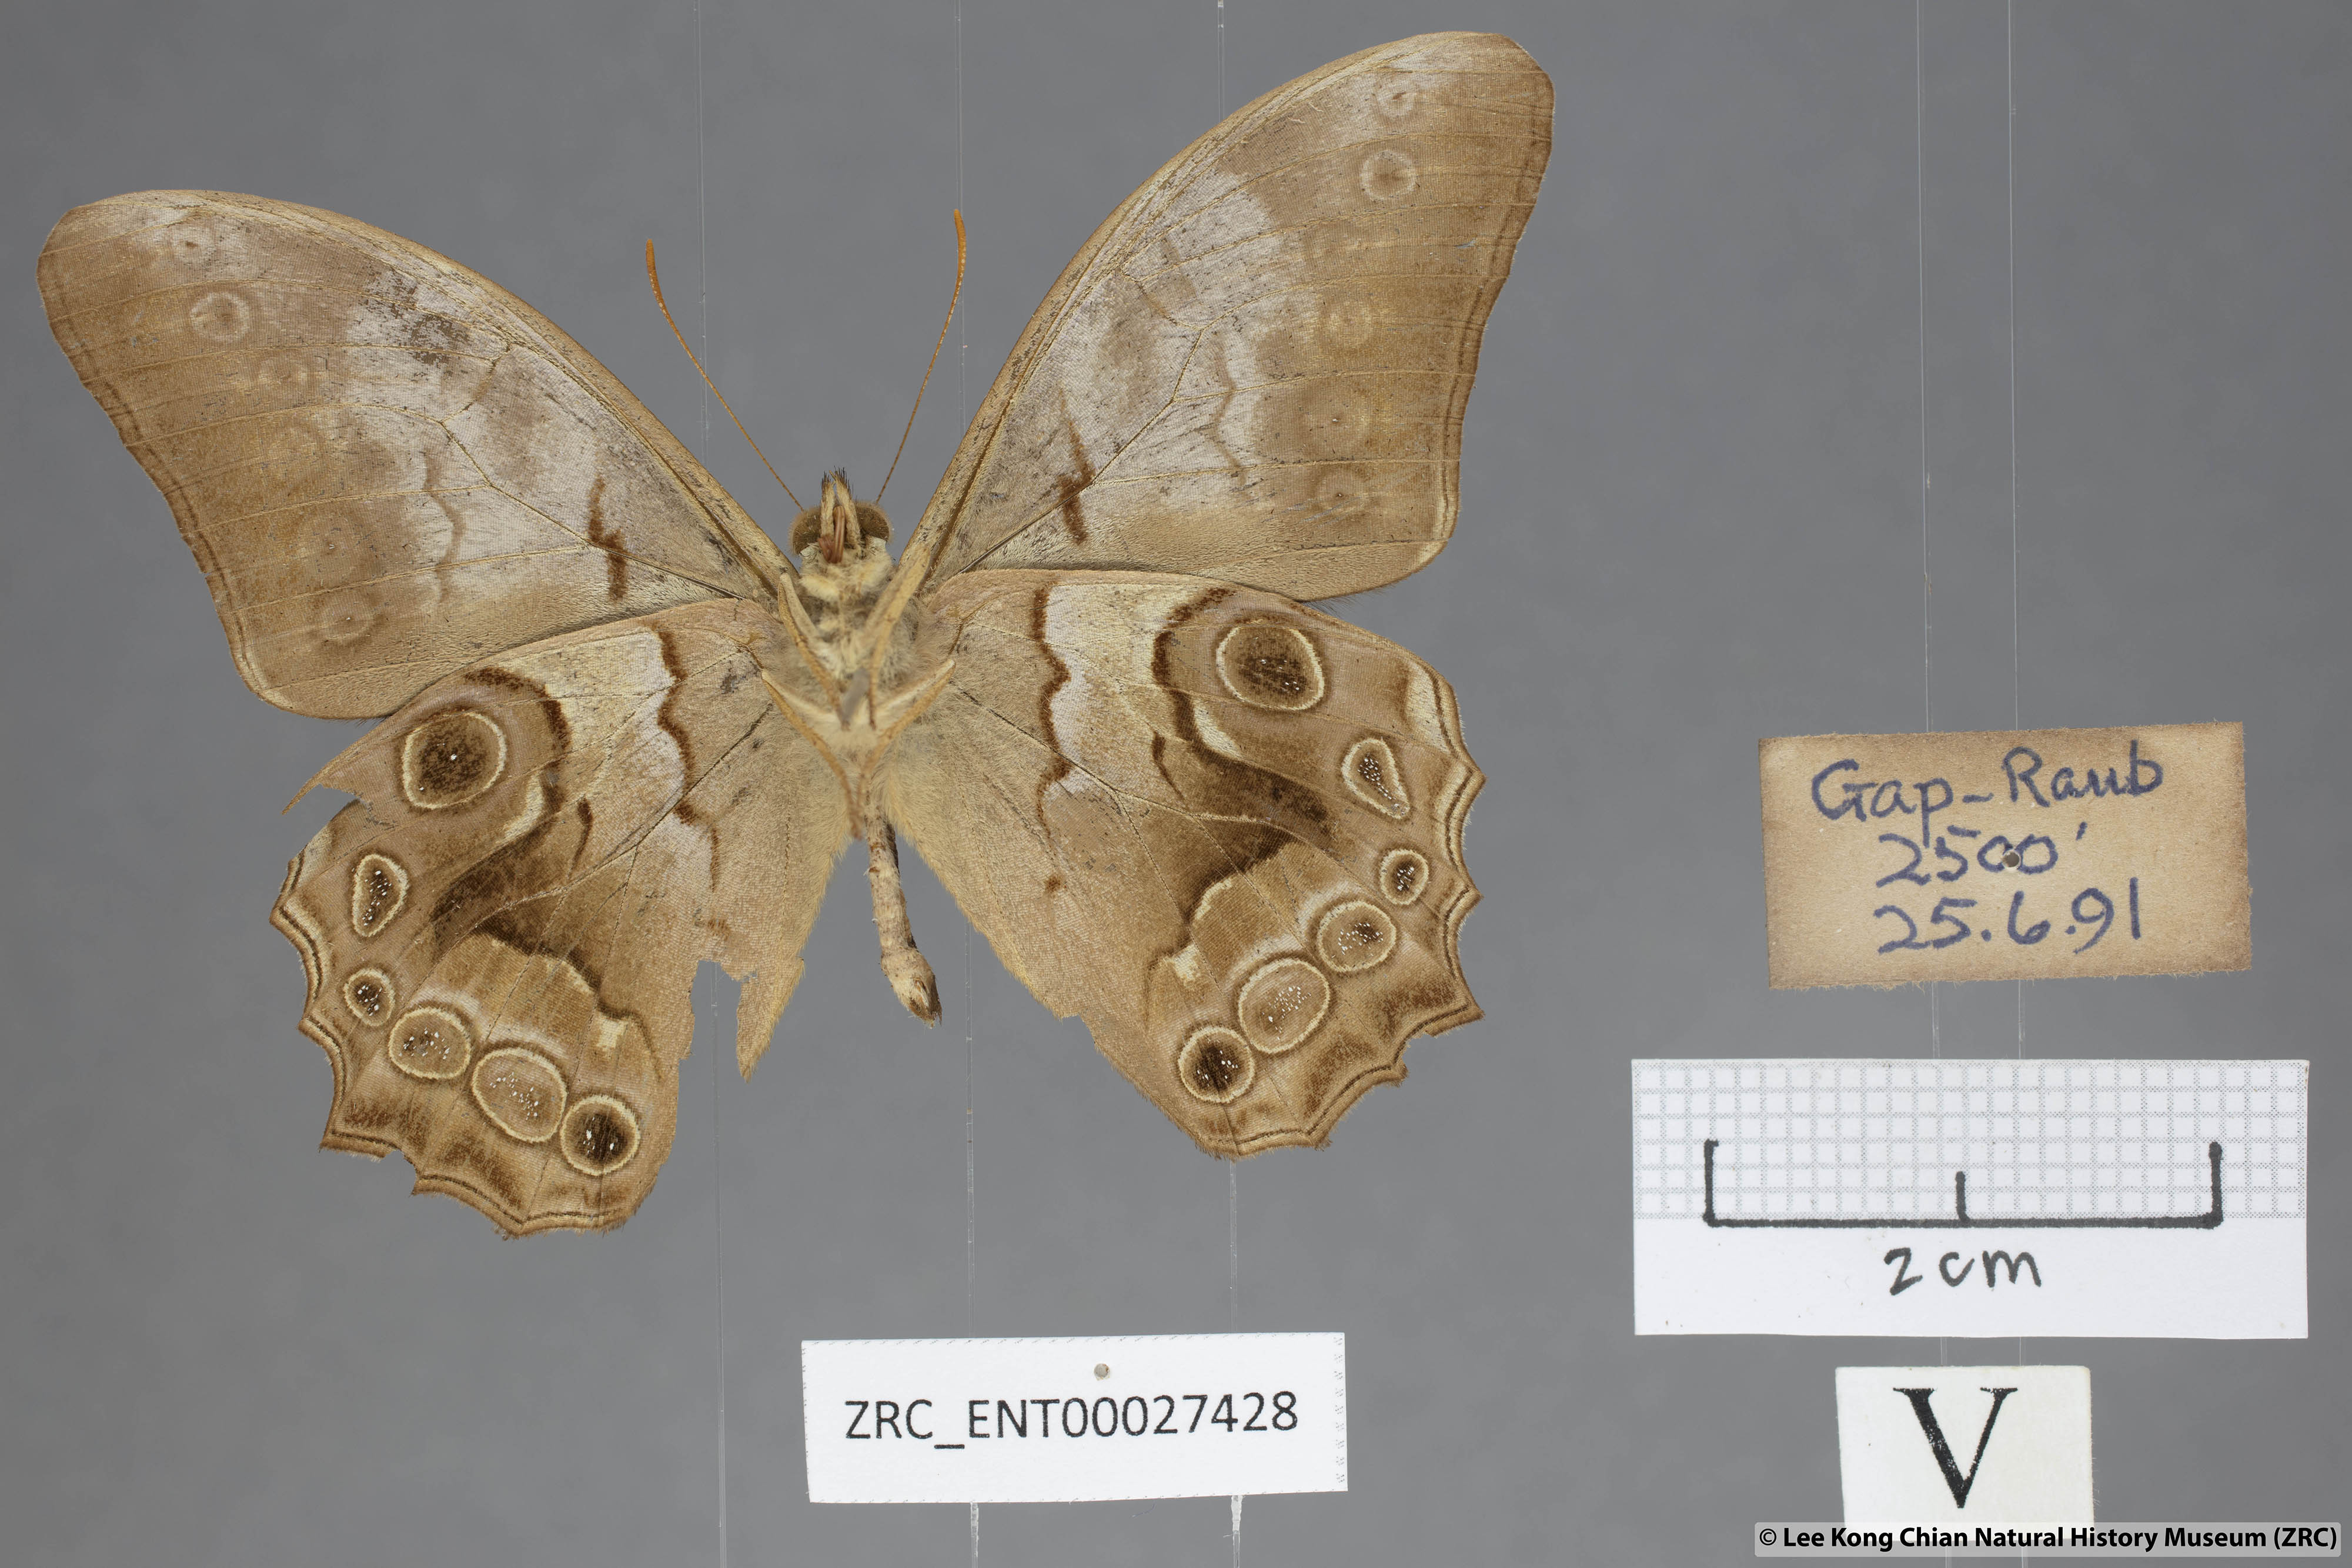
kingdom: Animalia
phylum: Arthropoda
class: Insecta
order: Lepidoptera
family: Nymphalidae
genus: Lethe
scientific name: Lethe chandica
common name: Angled red forester
